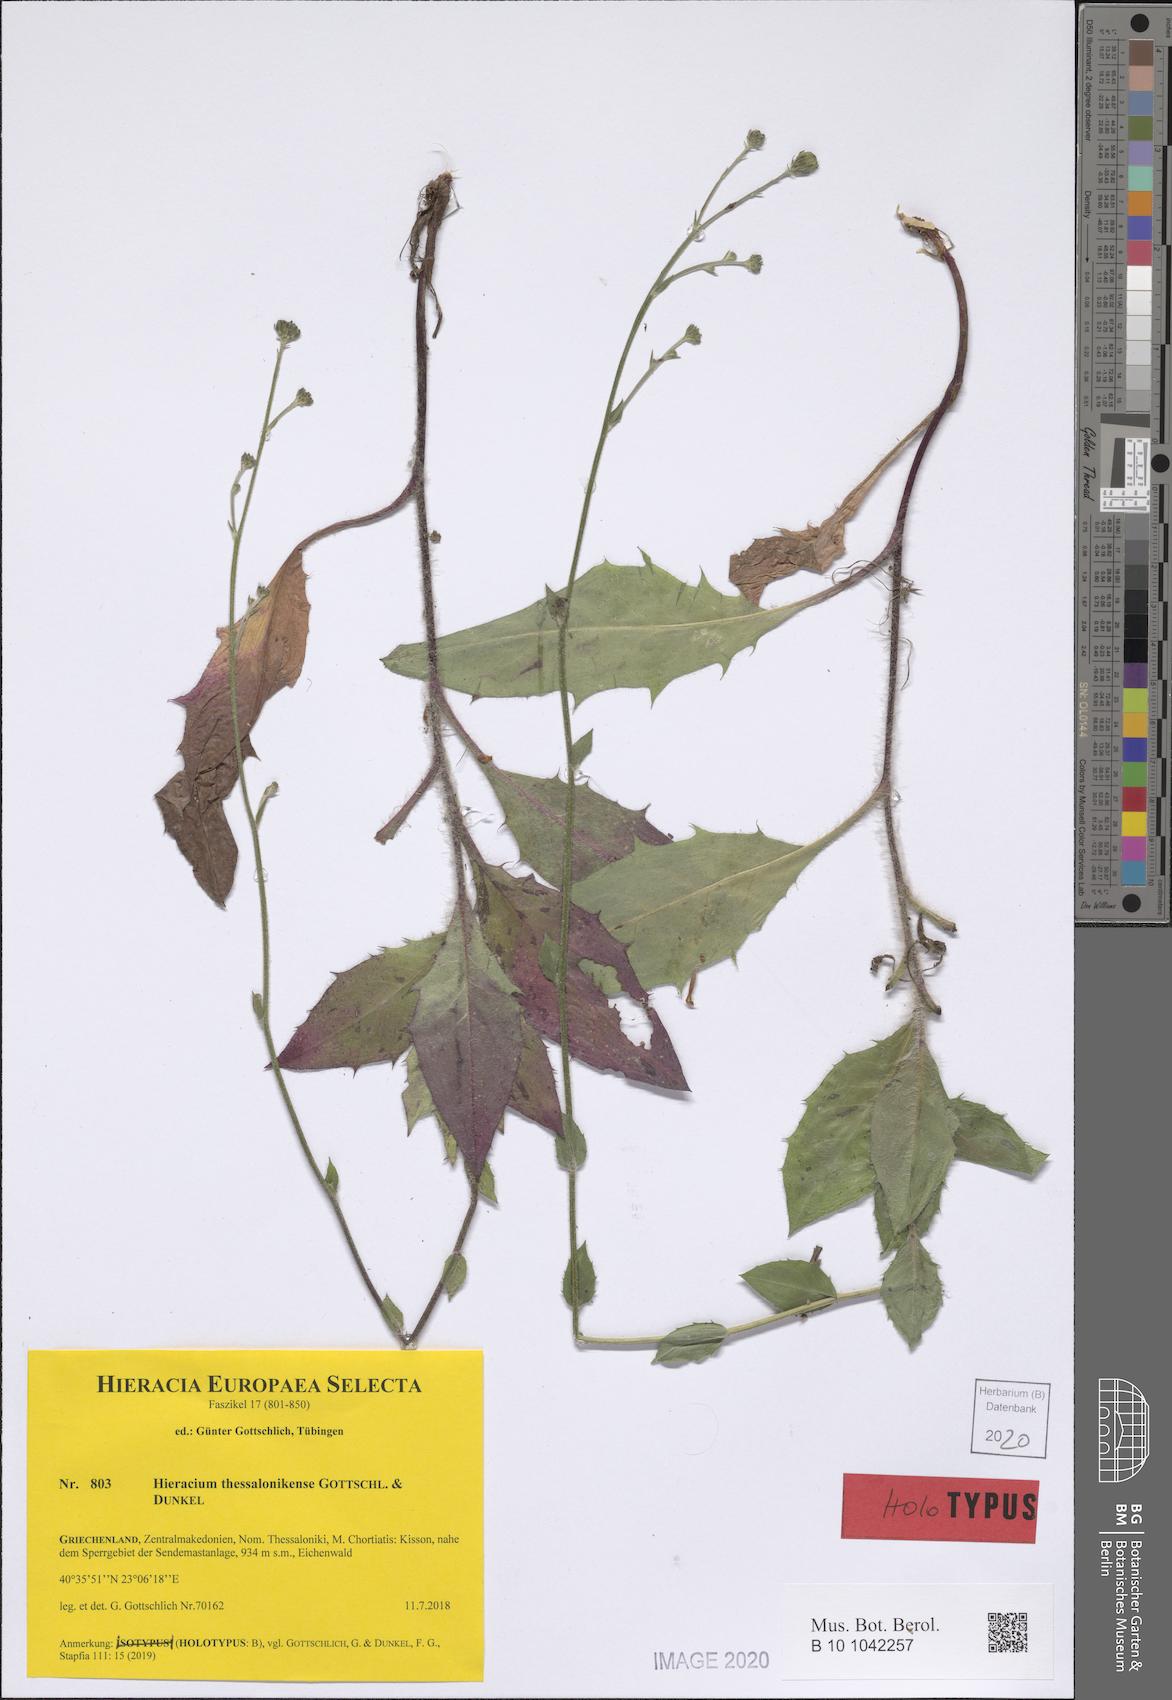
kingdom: Plantae
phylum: Tracheophyta
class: Magnoliopsida
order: Asterales
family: Asteraceae
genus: Hieracium
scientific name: Hieracium thessalonikense
